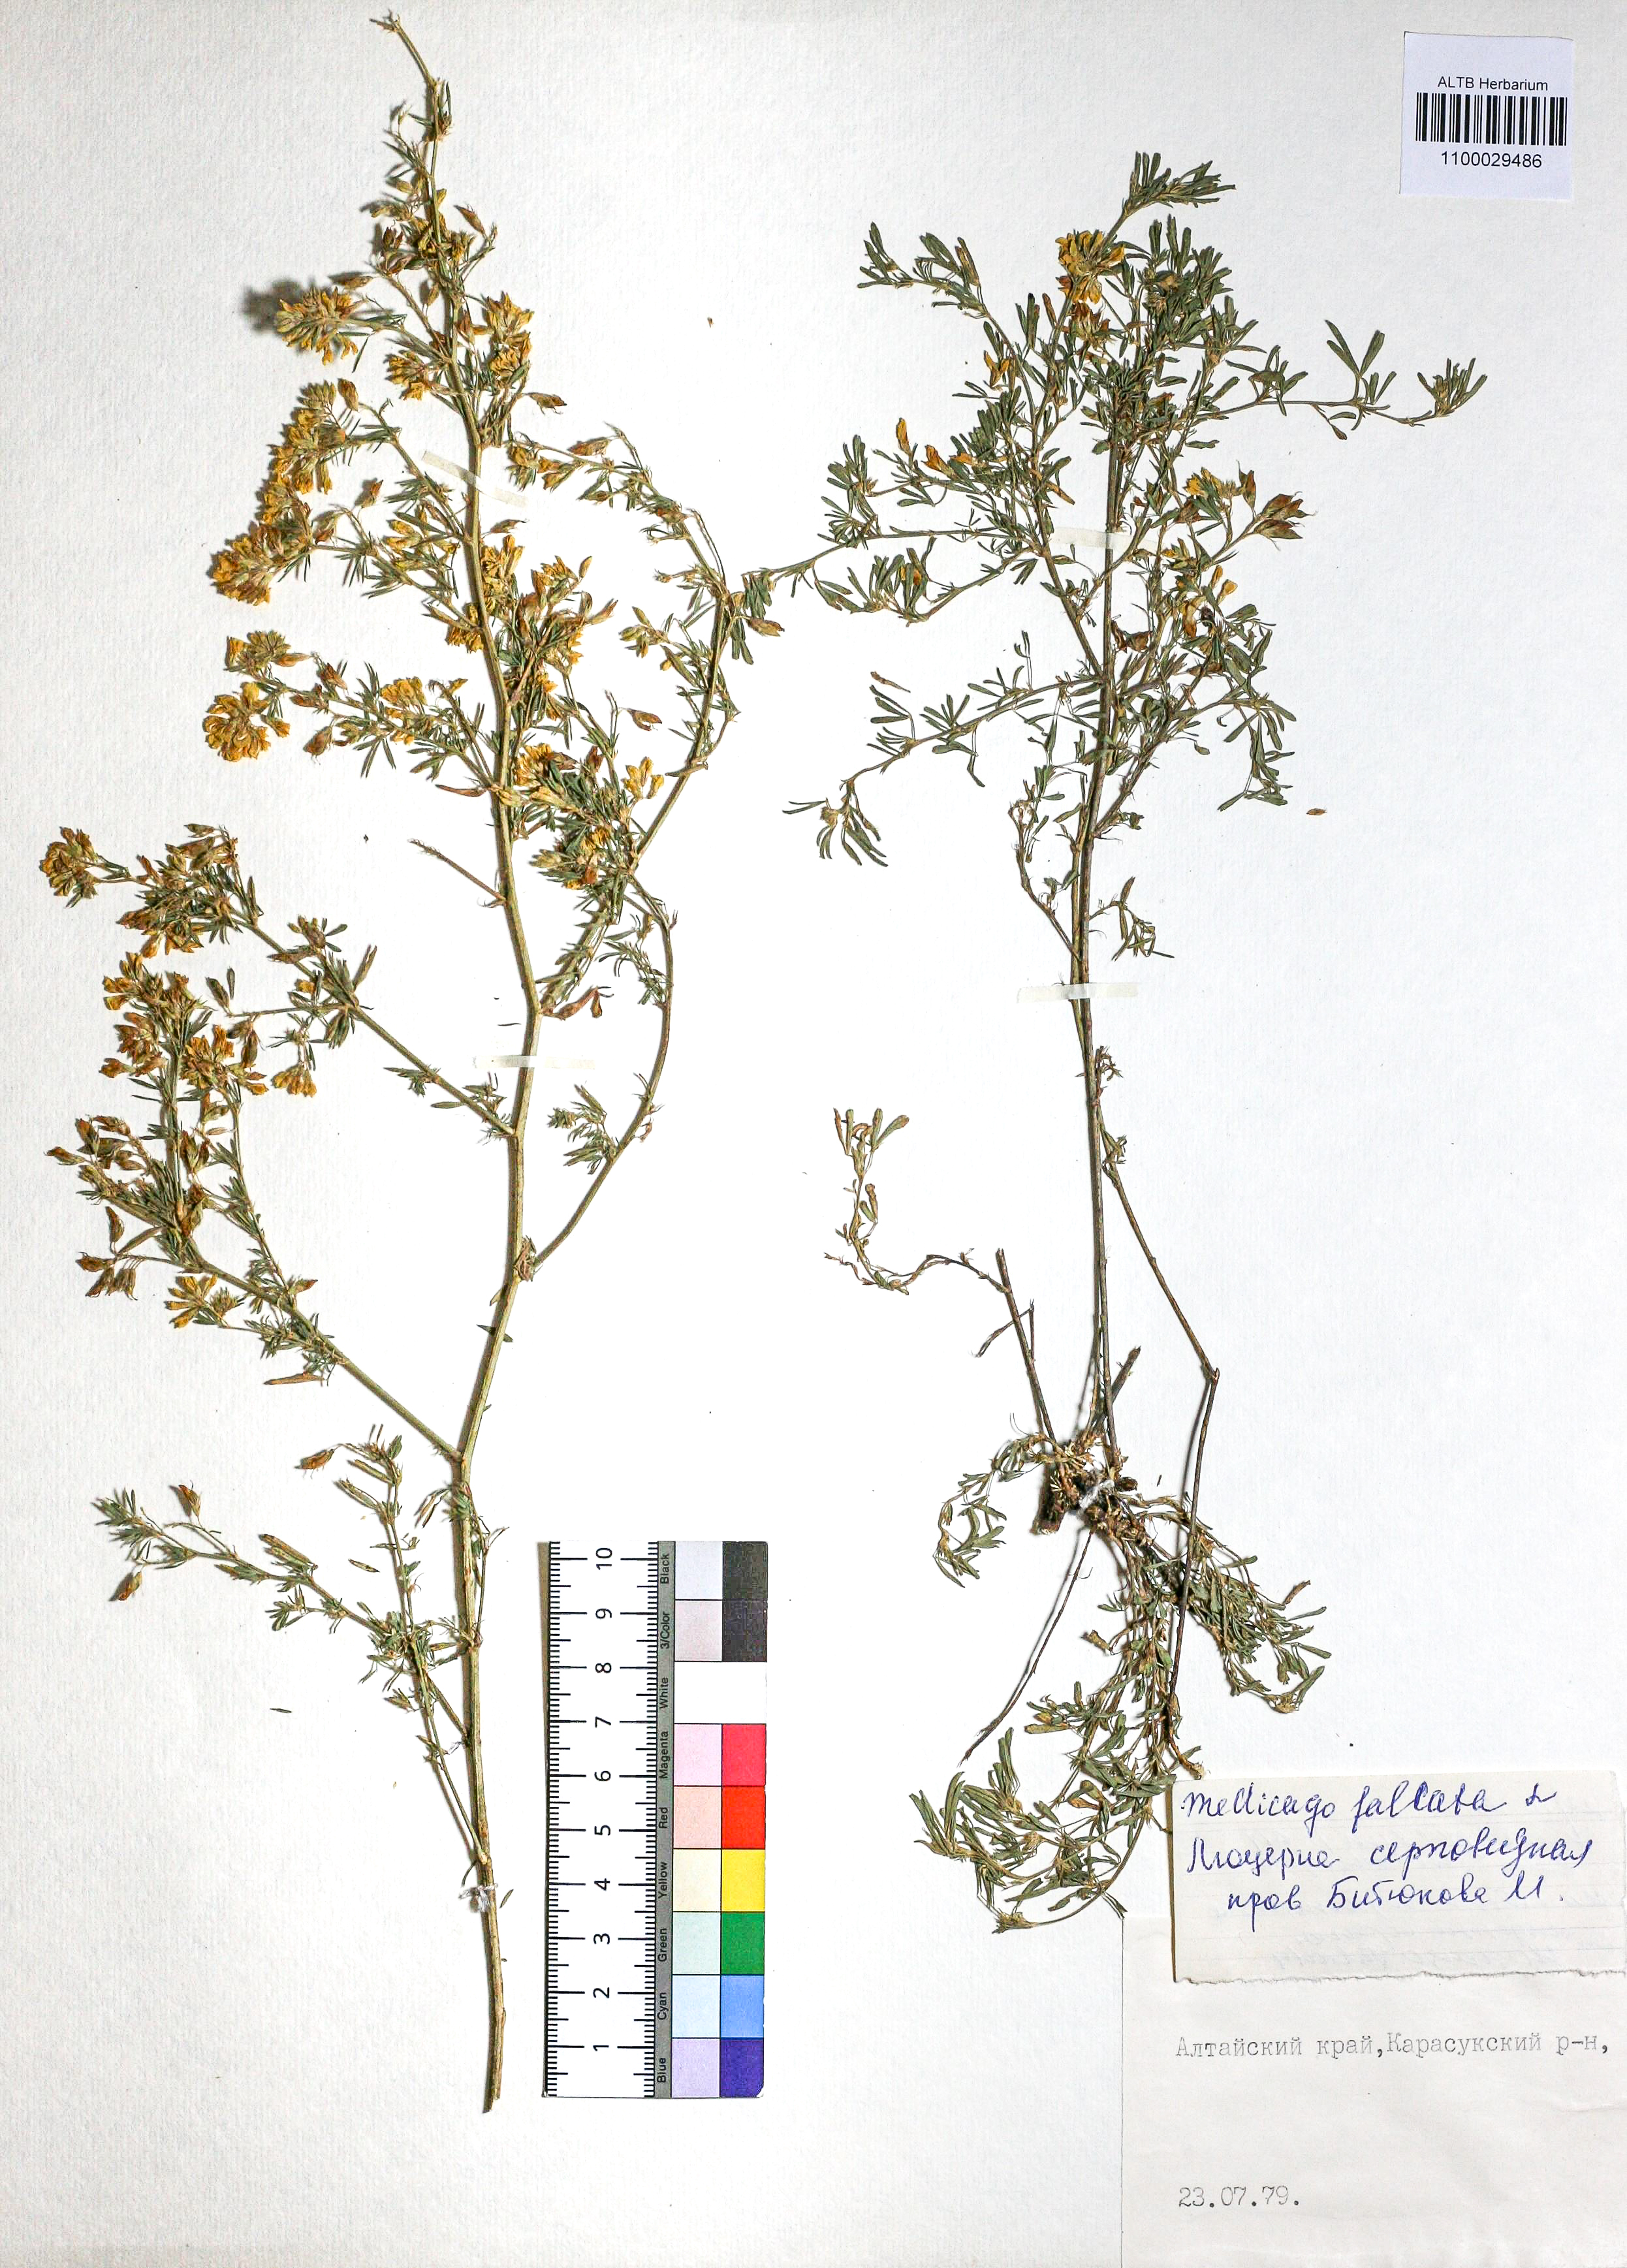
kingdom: Plantae
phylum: Tracheophyta
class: Magnoliopsida
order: Fabales
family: Fabaceae
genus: Medicago
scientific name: Medicago falcata
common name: Sickle medick
